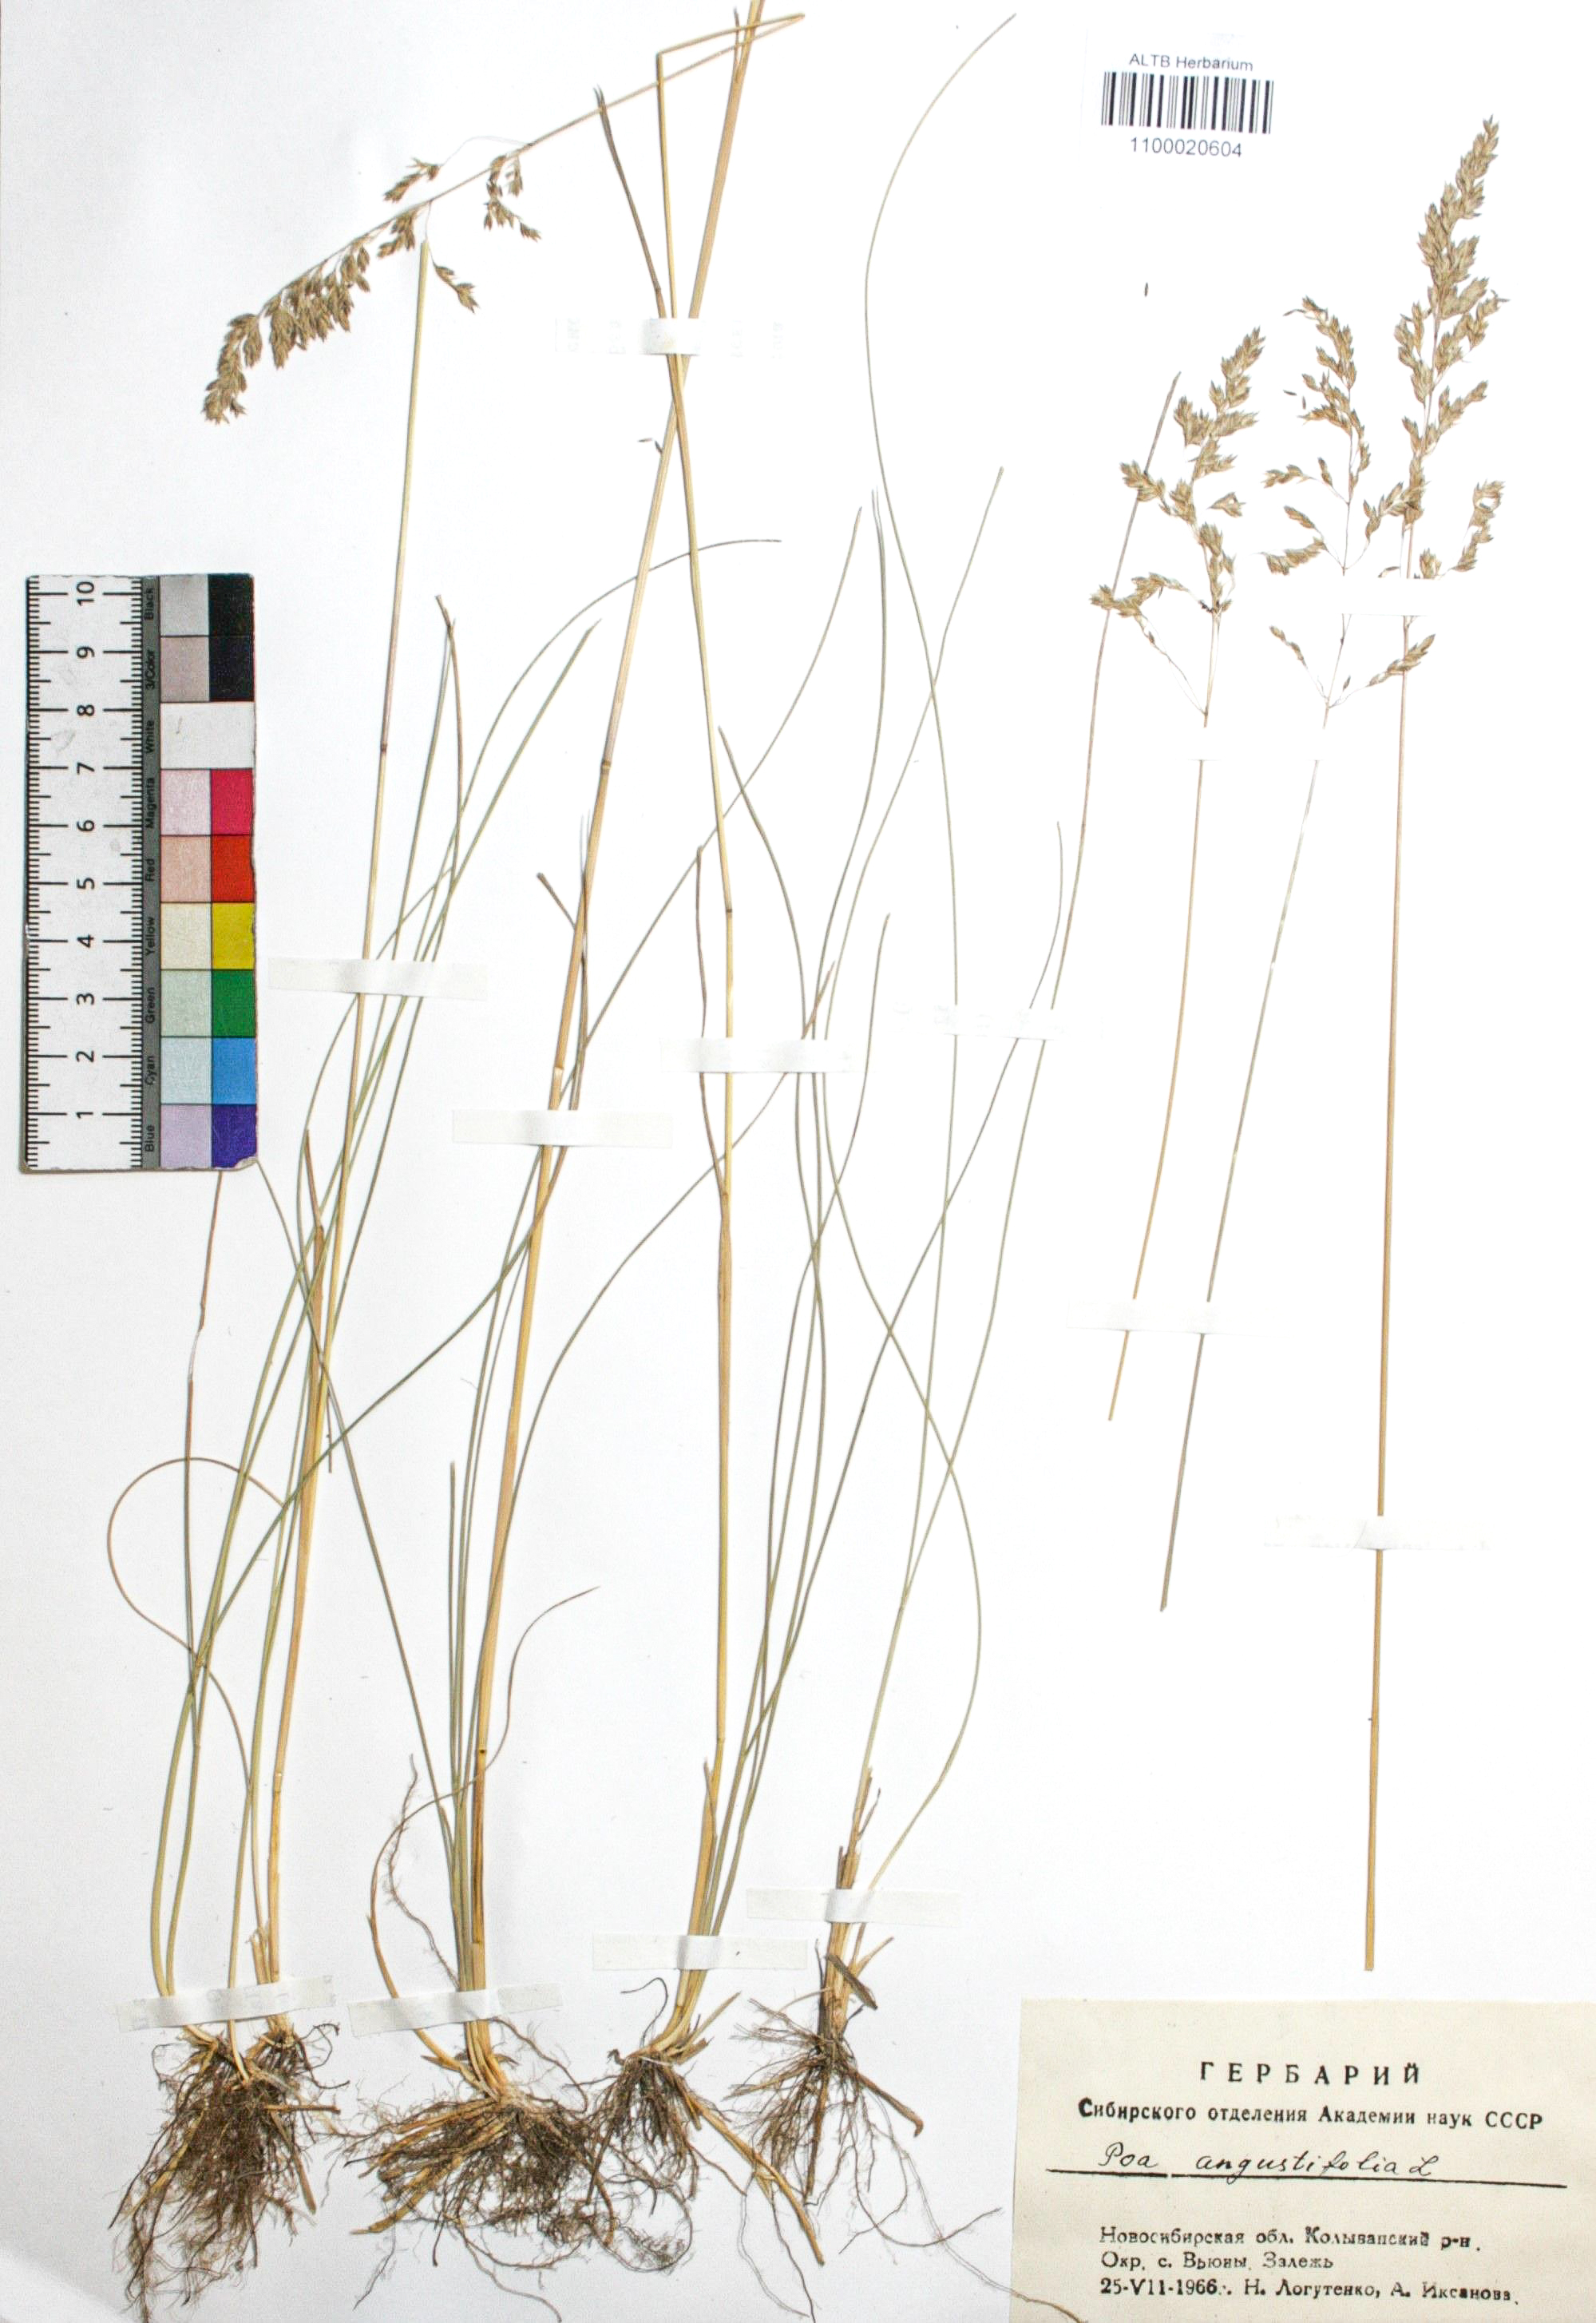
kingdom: Plantae
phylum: Tracheophyta
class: Liliopsida
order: Poales
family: Poaceae
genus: Poa
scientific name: Poa angustifolia
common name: Narrow-leaved meadow-grass
